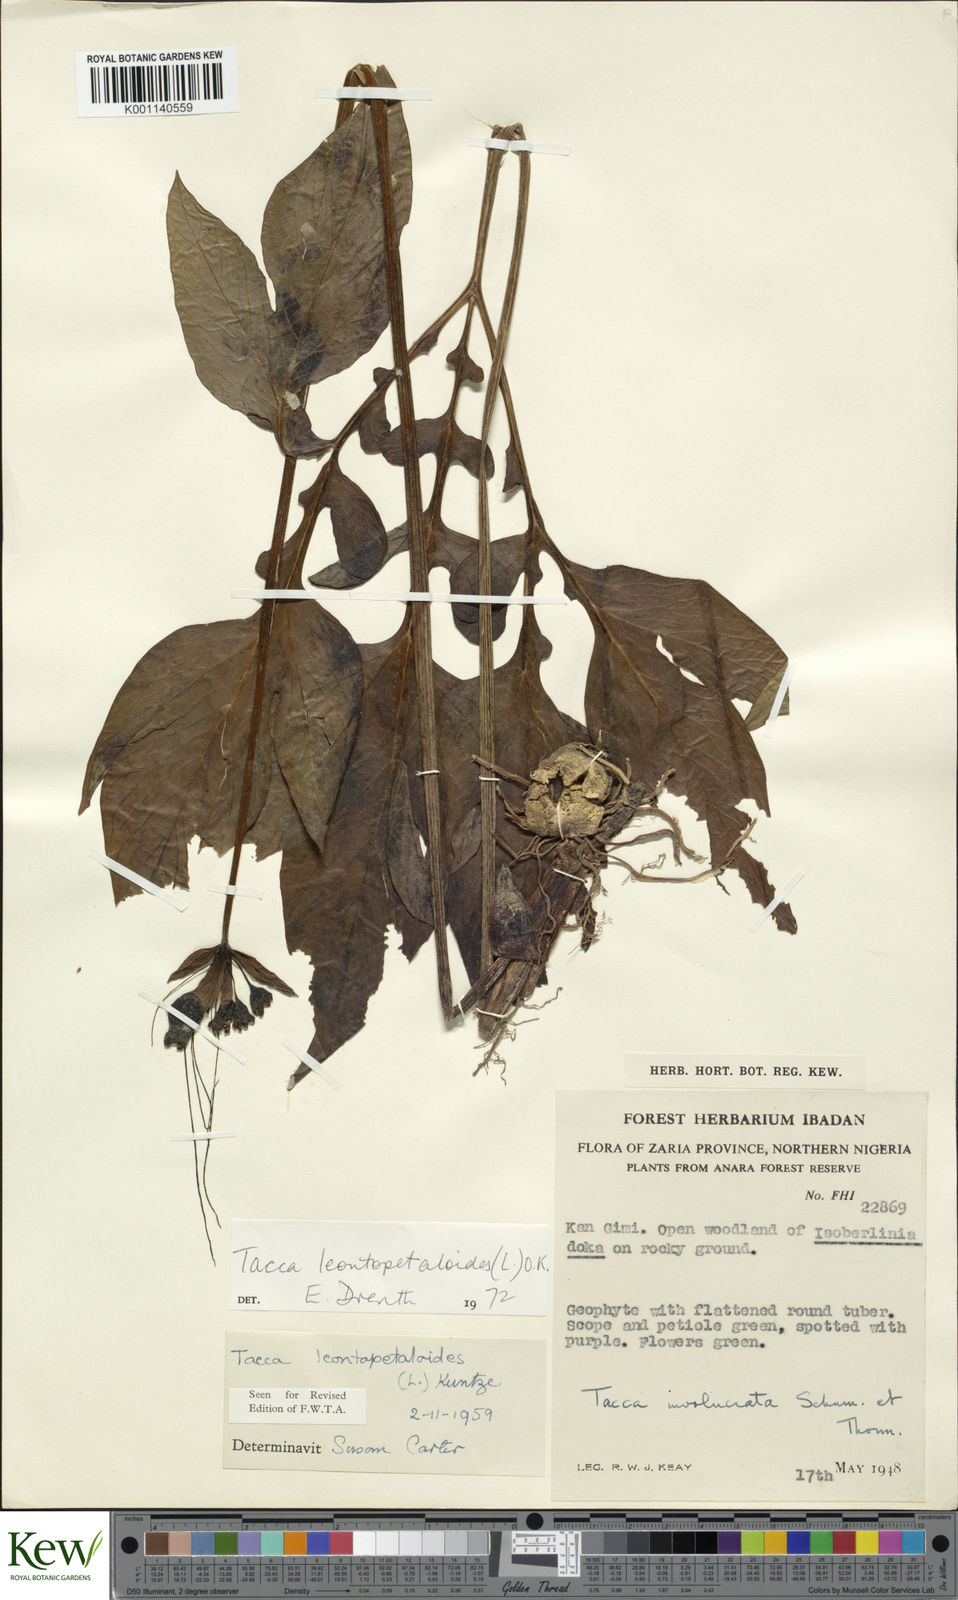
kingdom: Plantae
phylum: Tracheophyta
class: Liliopsida
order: Dioscoreales
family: Dioscoreaceae
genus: Tacca
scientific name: Tacca leontopetaloides
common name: Arrowroot
